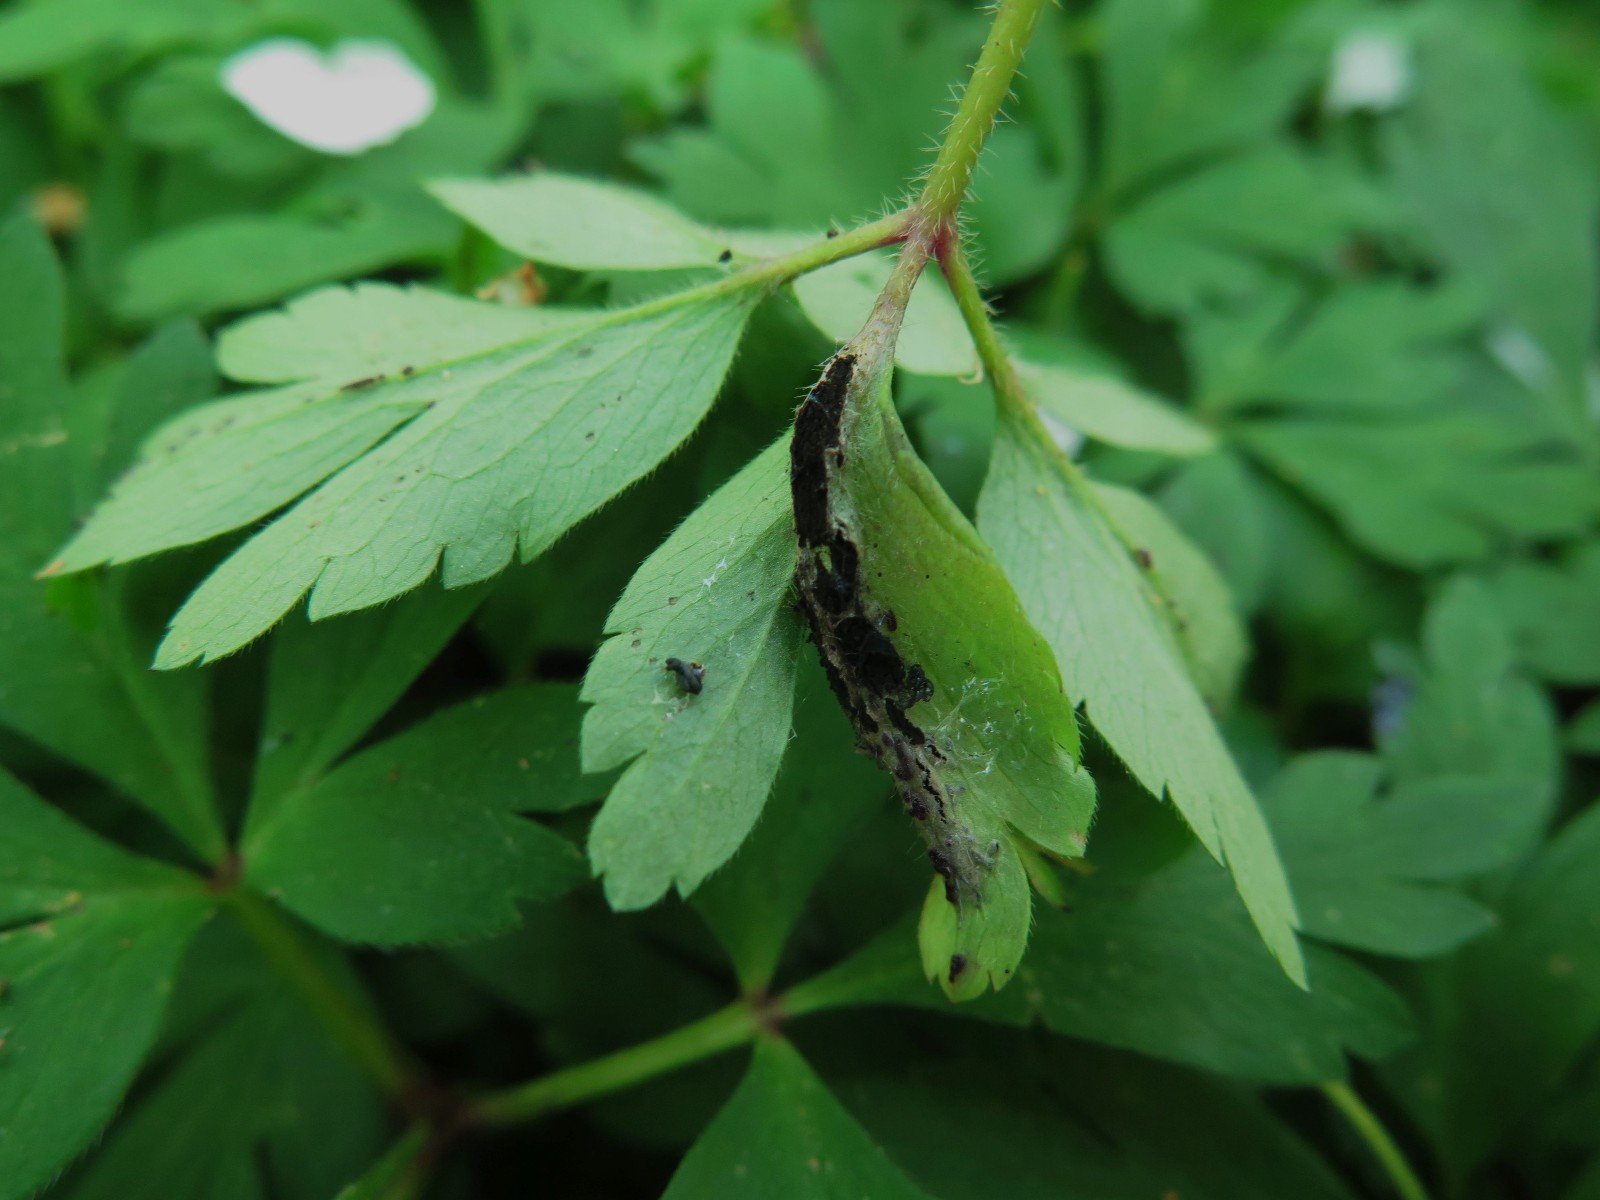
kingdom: Fungi
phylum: Basidiomycota
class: Ustilaginomycetes
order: Urocystidales
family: Urocystidaceae
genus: Urocystis
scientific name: Urocystis anemones
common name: anemone-brand
